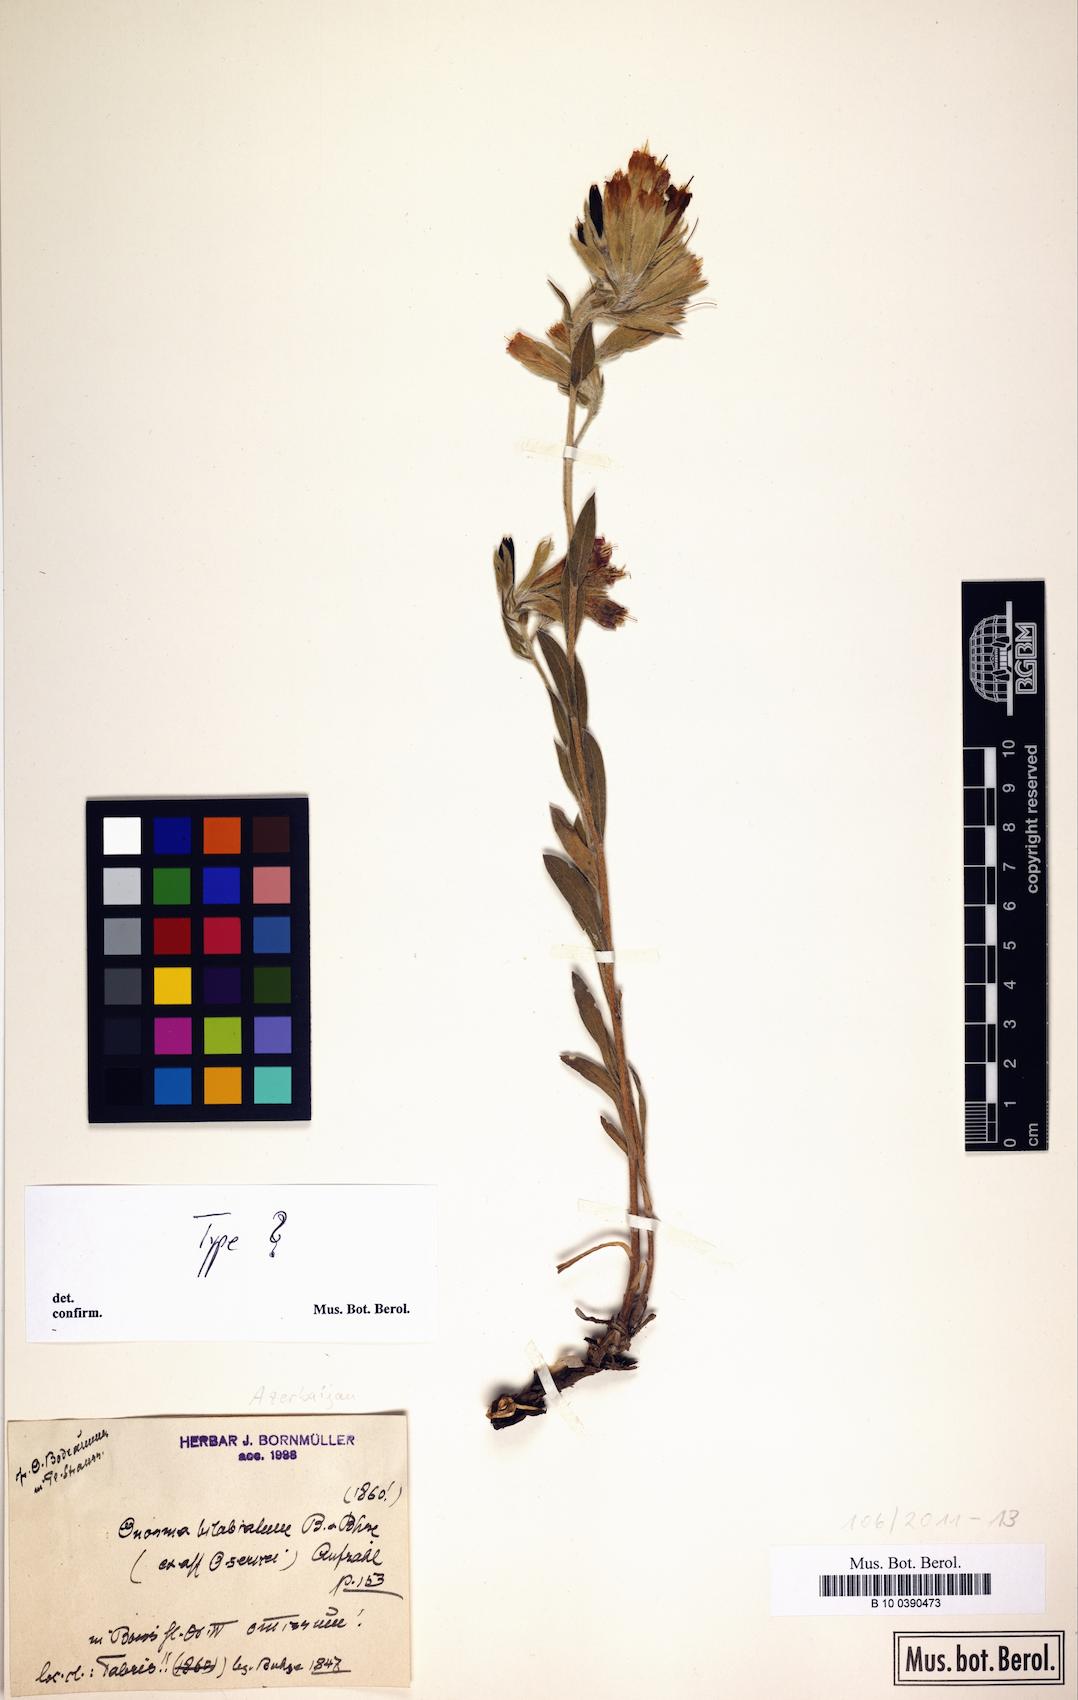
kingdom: Plantae
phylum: Tracheophyta
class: Magnoliopsida
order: Boraginales
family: Boraginaceae
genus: Onosma
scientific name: Onosma bilabiata
